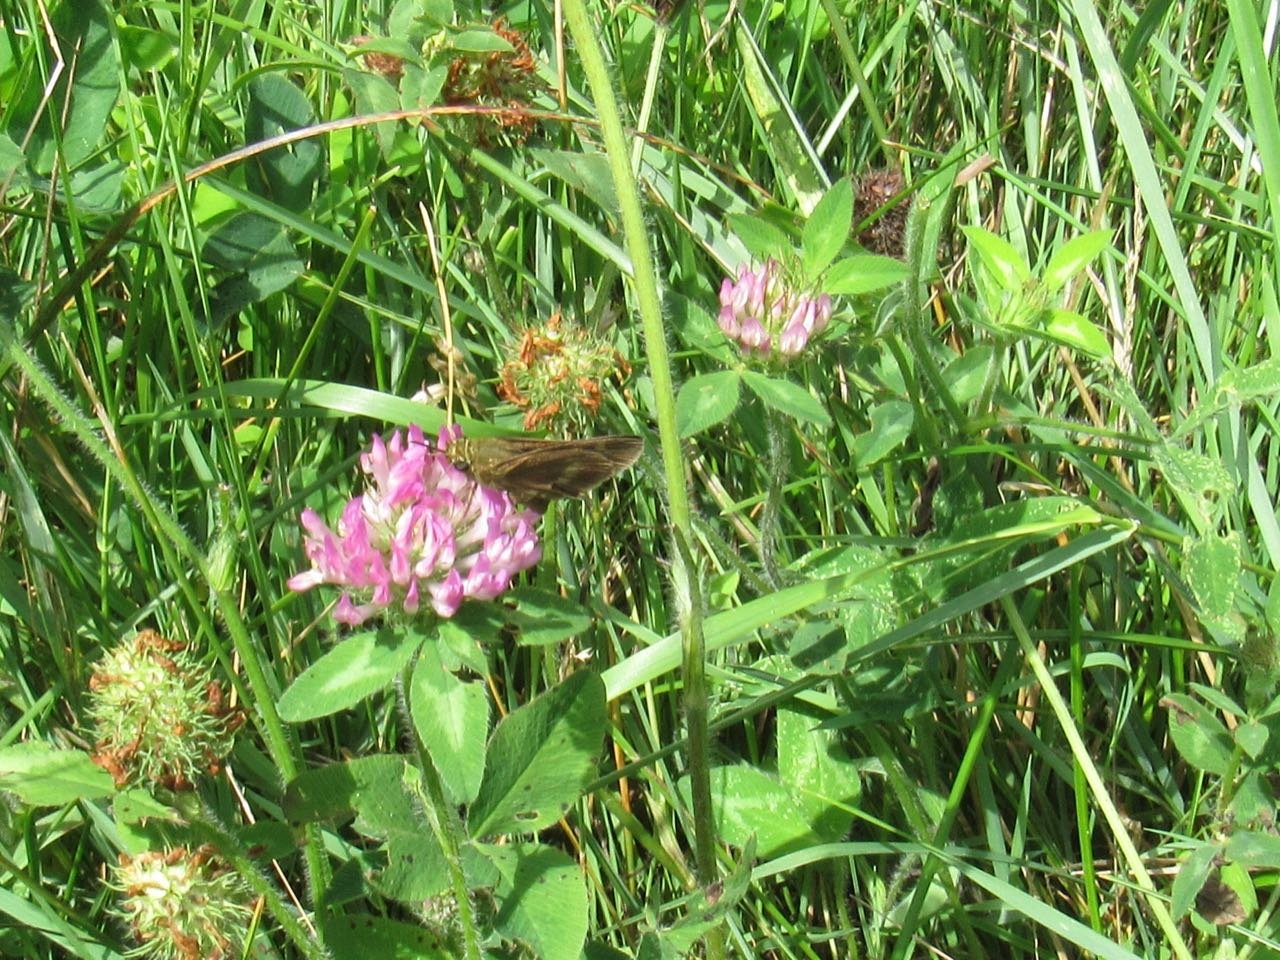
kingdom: Animalia
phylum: Arthropoda
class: Insecta
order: Lepidoptera
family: Hesperiidae
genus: Polites
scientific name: Polites egeremet
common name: Northern Broken-Dash
